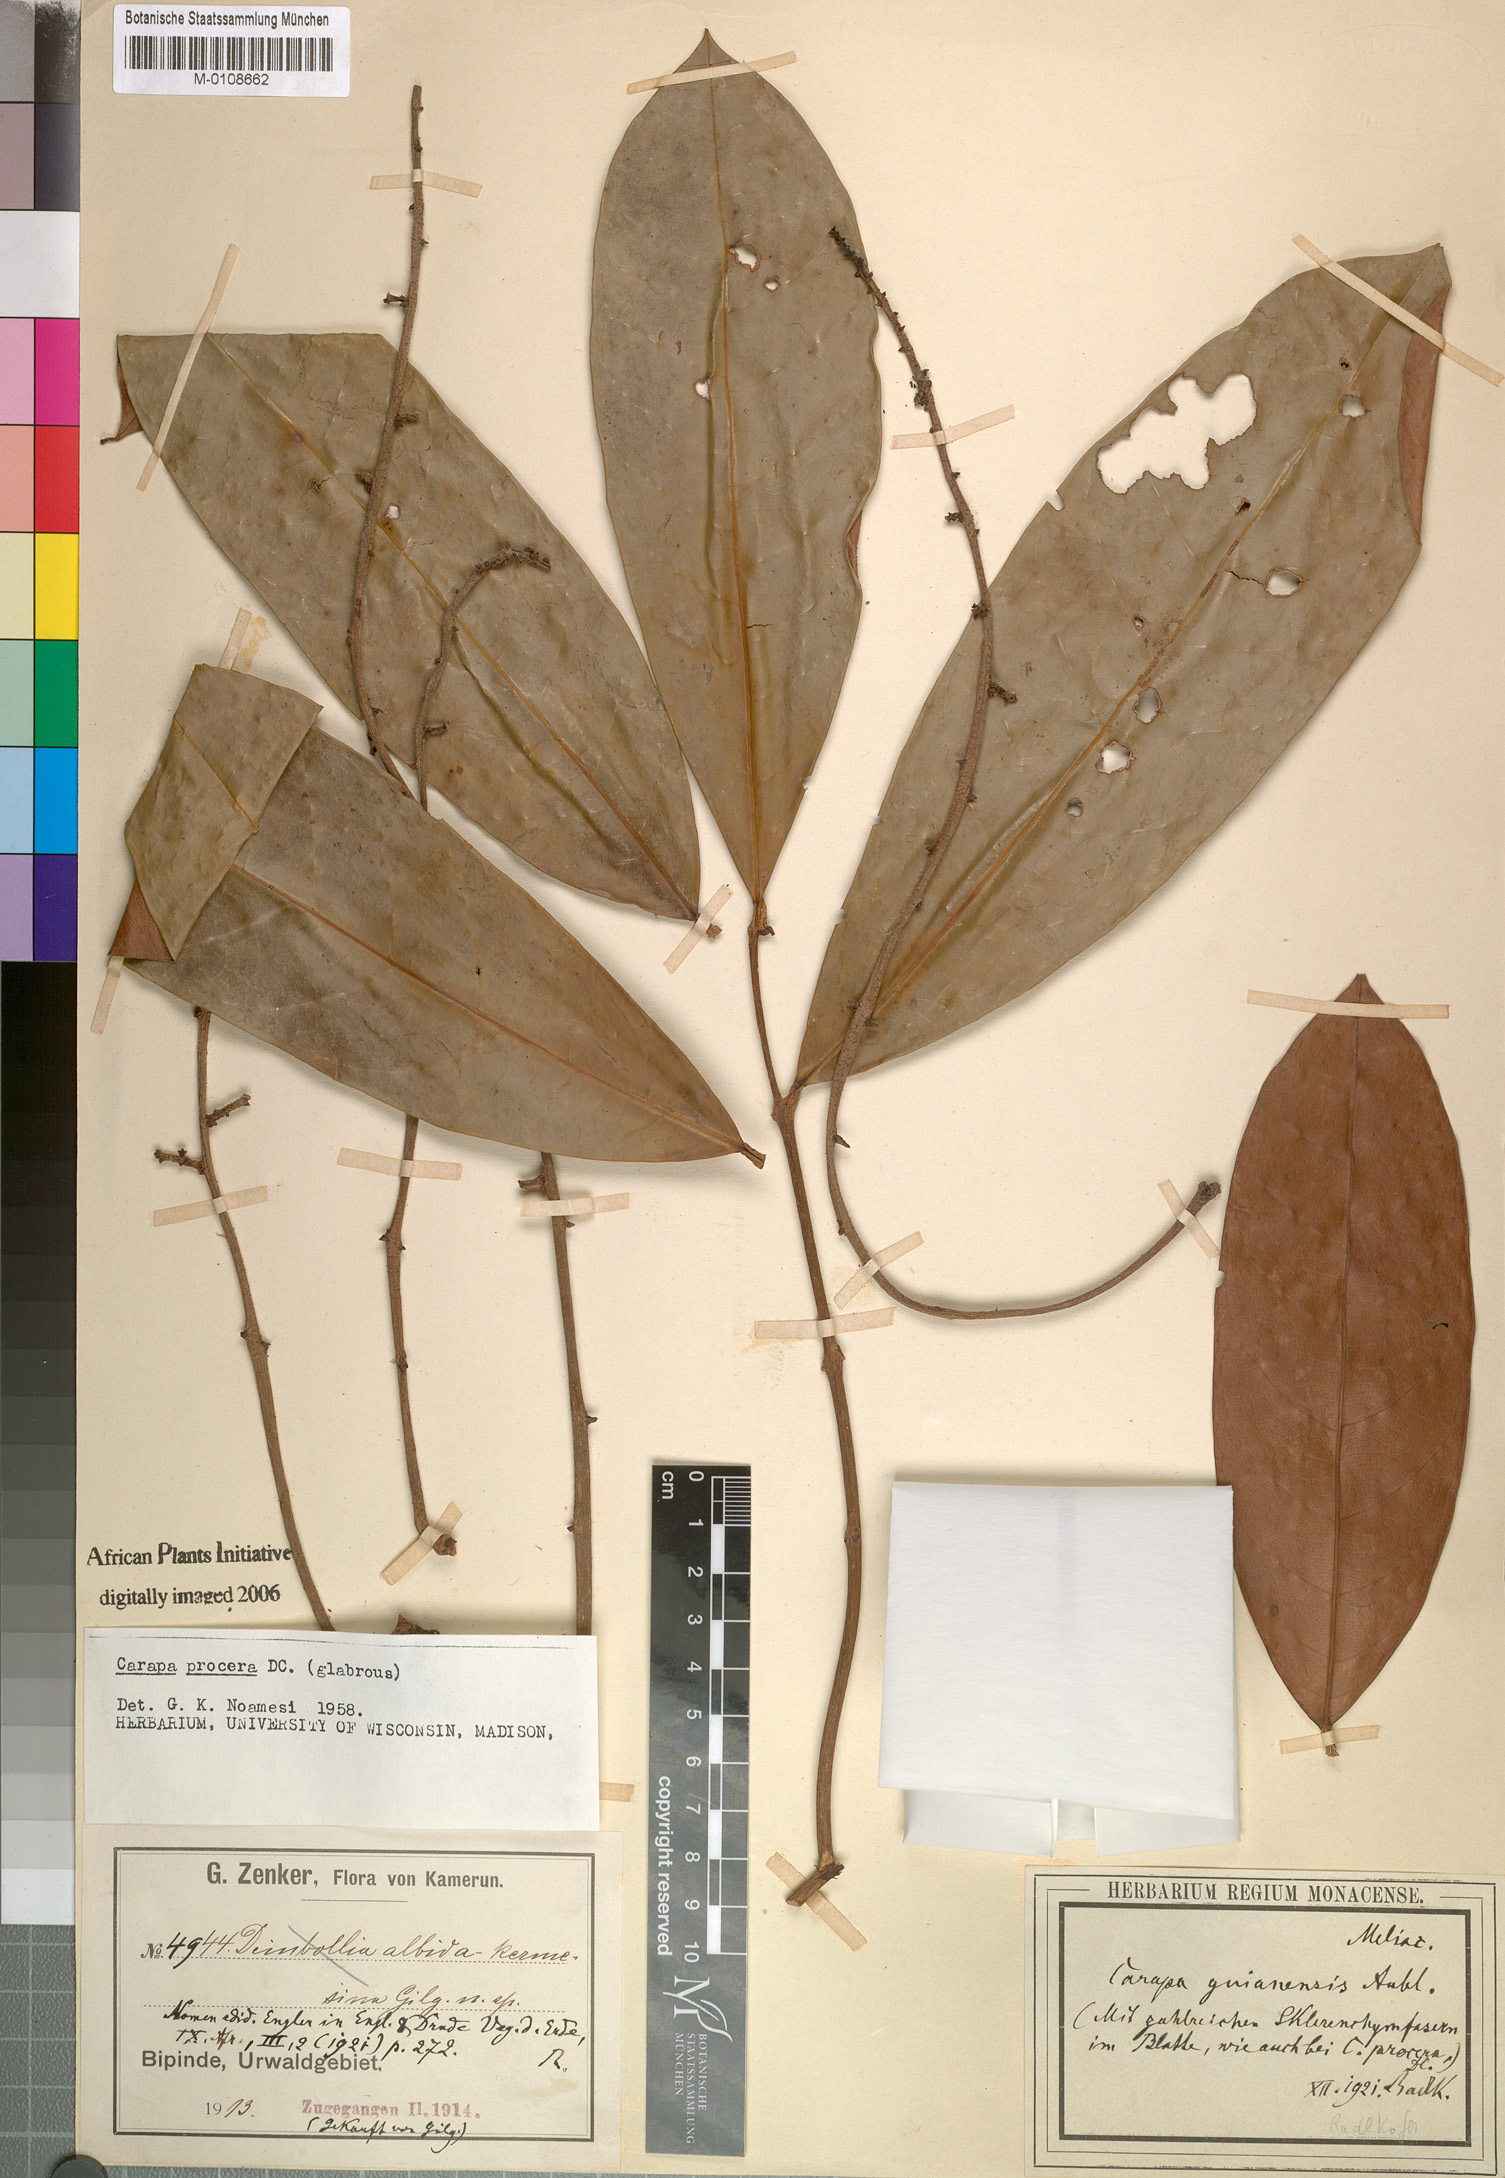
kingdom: Plantae
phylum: Tracheophyta
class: Magnoliopsida
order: Sapindales
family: Meliaceae
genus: Carapa
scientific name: Carapa procera
